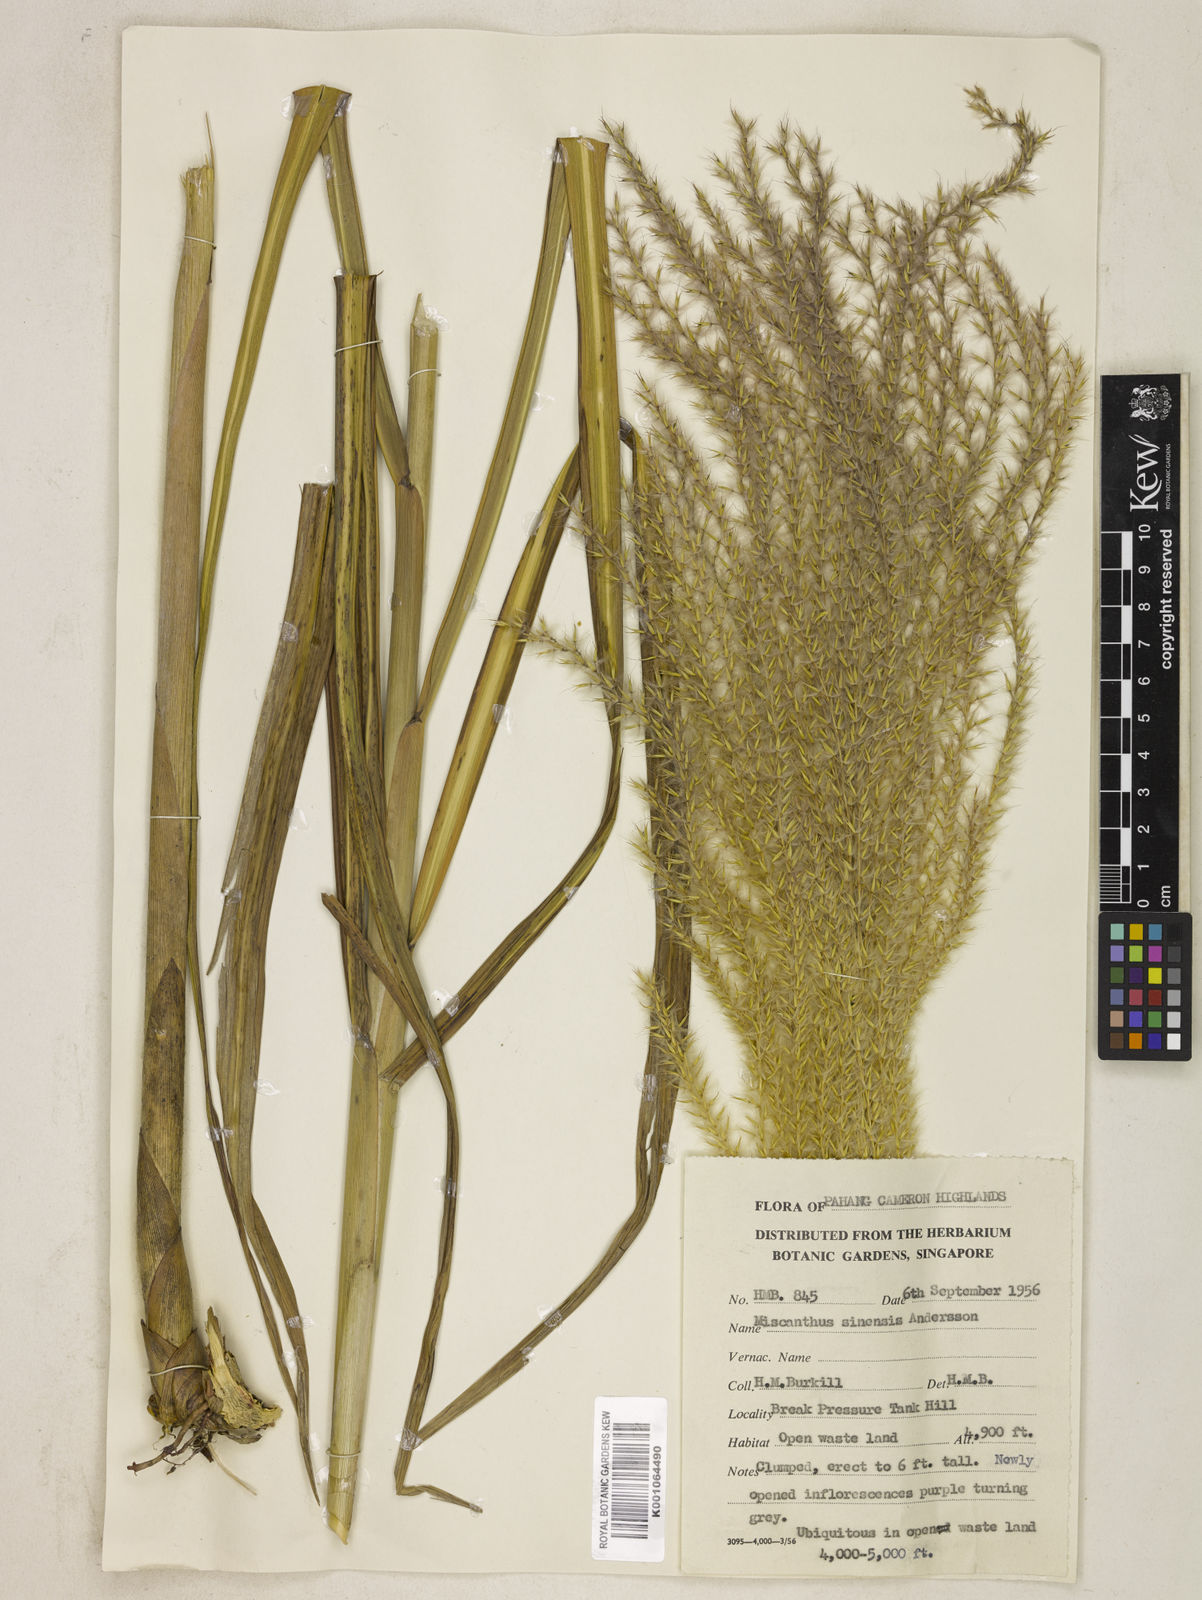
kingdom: Plantae
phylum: Tracheophyta
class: Liliopsida
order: Poales
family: Poaceae
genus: Miscanthus
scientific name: Miscanthus sinensis
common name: Chinese silvergrass
